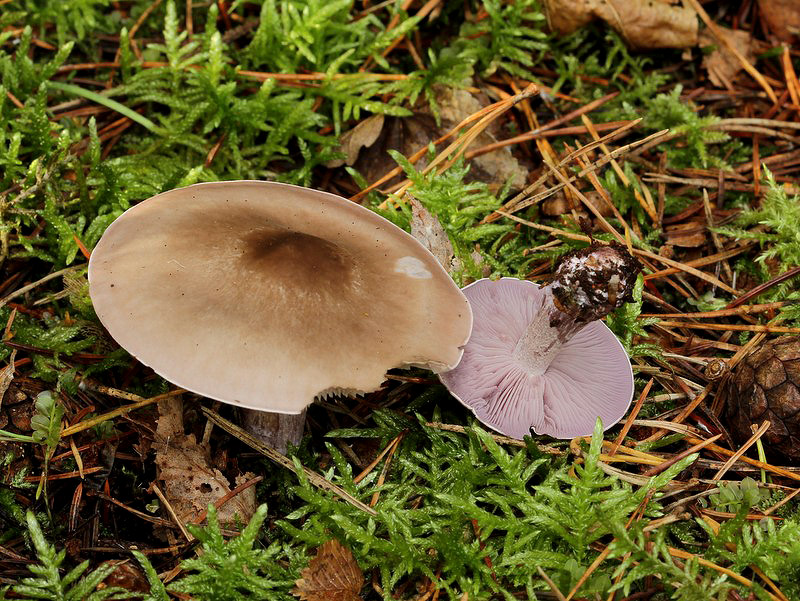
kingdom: Fungi
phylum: Basidiomycota
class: Agaricomycetes
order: Agaricales
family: Tricholomataceae
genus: Lepista
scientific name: Lepista nuda
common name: violet hekseringshat
